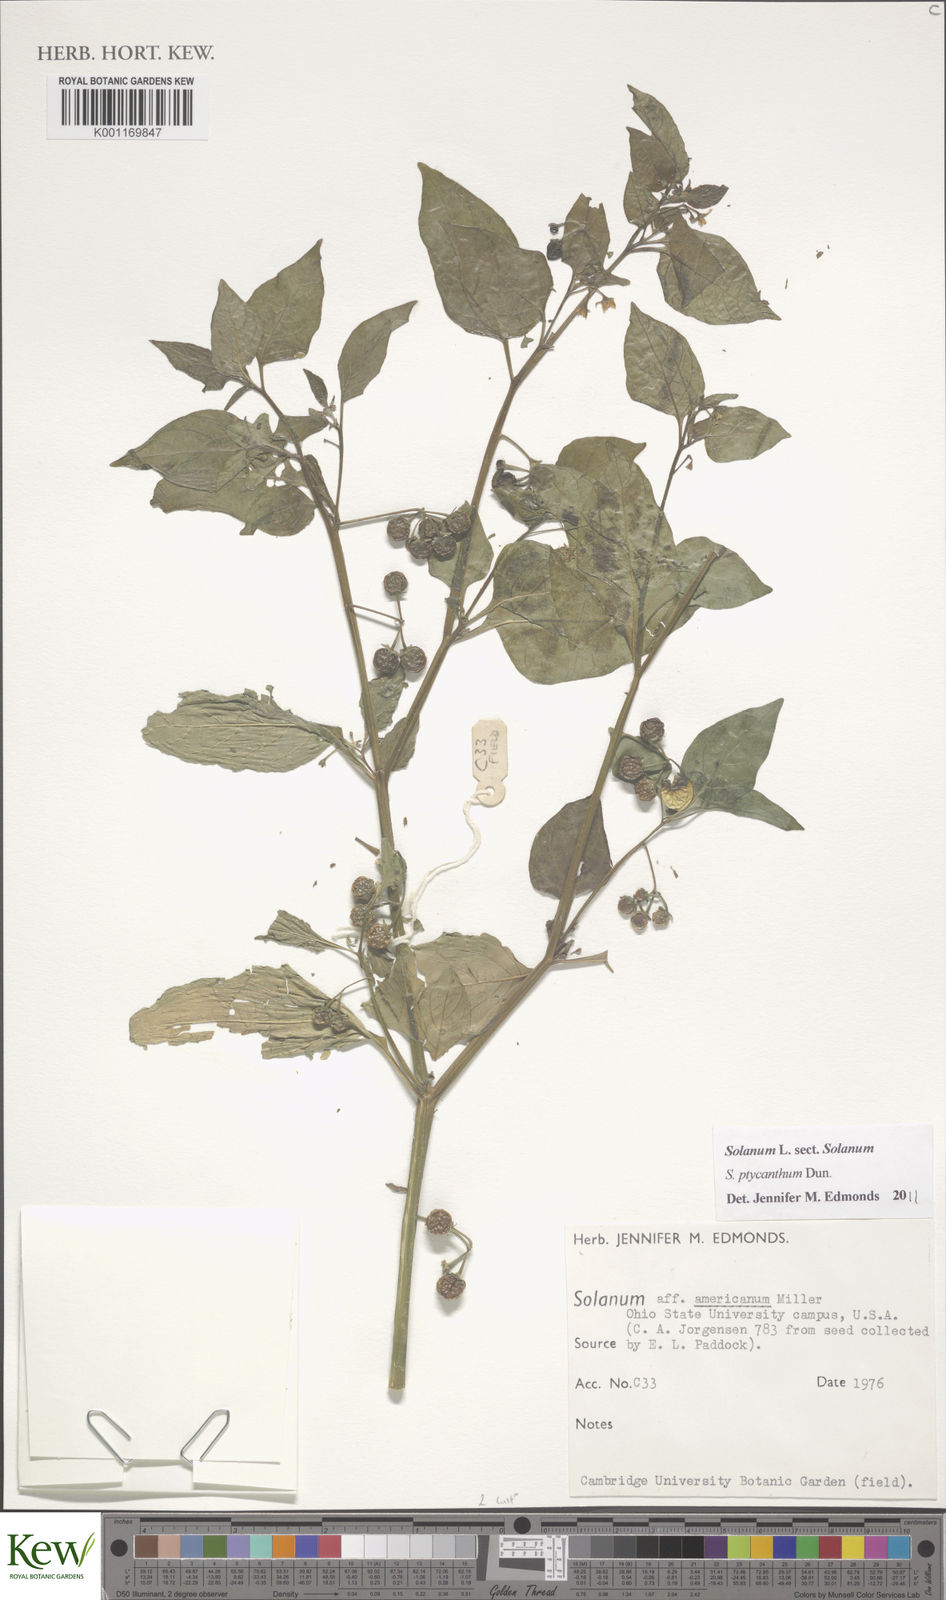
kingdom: Plantae
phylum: Tracheophyta
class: Magnoliopsida
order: Solanales
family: Solanaceae
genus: Solanum
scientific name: Solanum americanum
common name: American black nightshade
